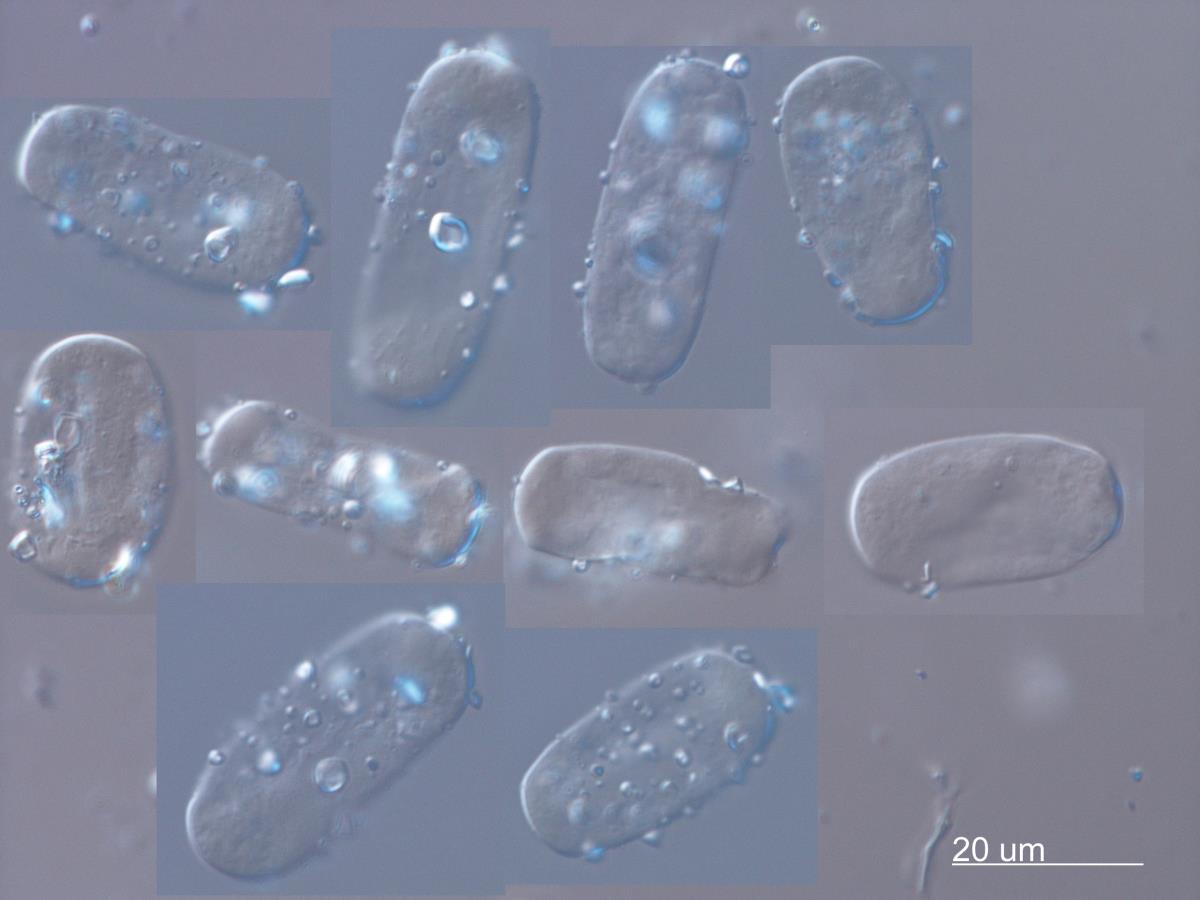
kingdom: Fungi
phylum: Ascomycota
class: Leotiomycetes
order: Helotiales
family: Erysiphaceae
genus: Erysiphe
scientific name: Erysiphe densa
